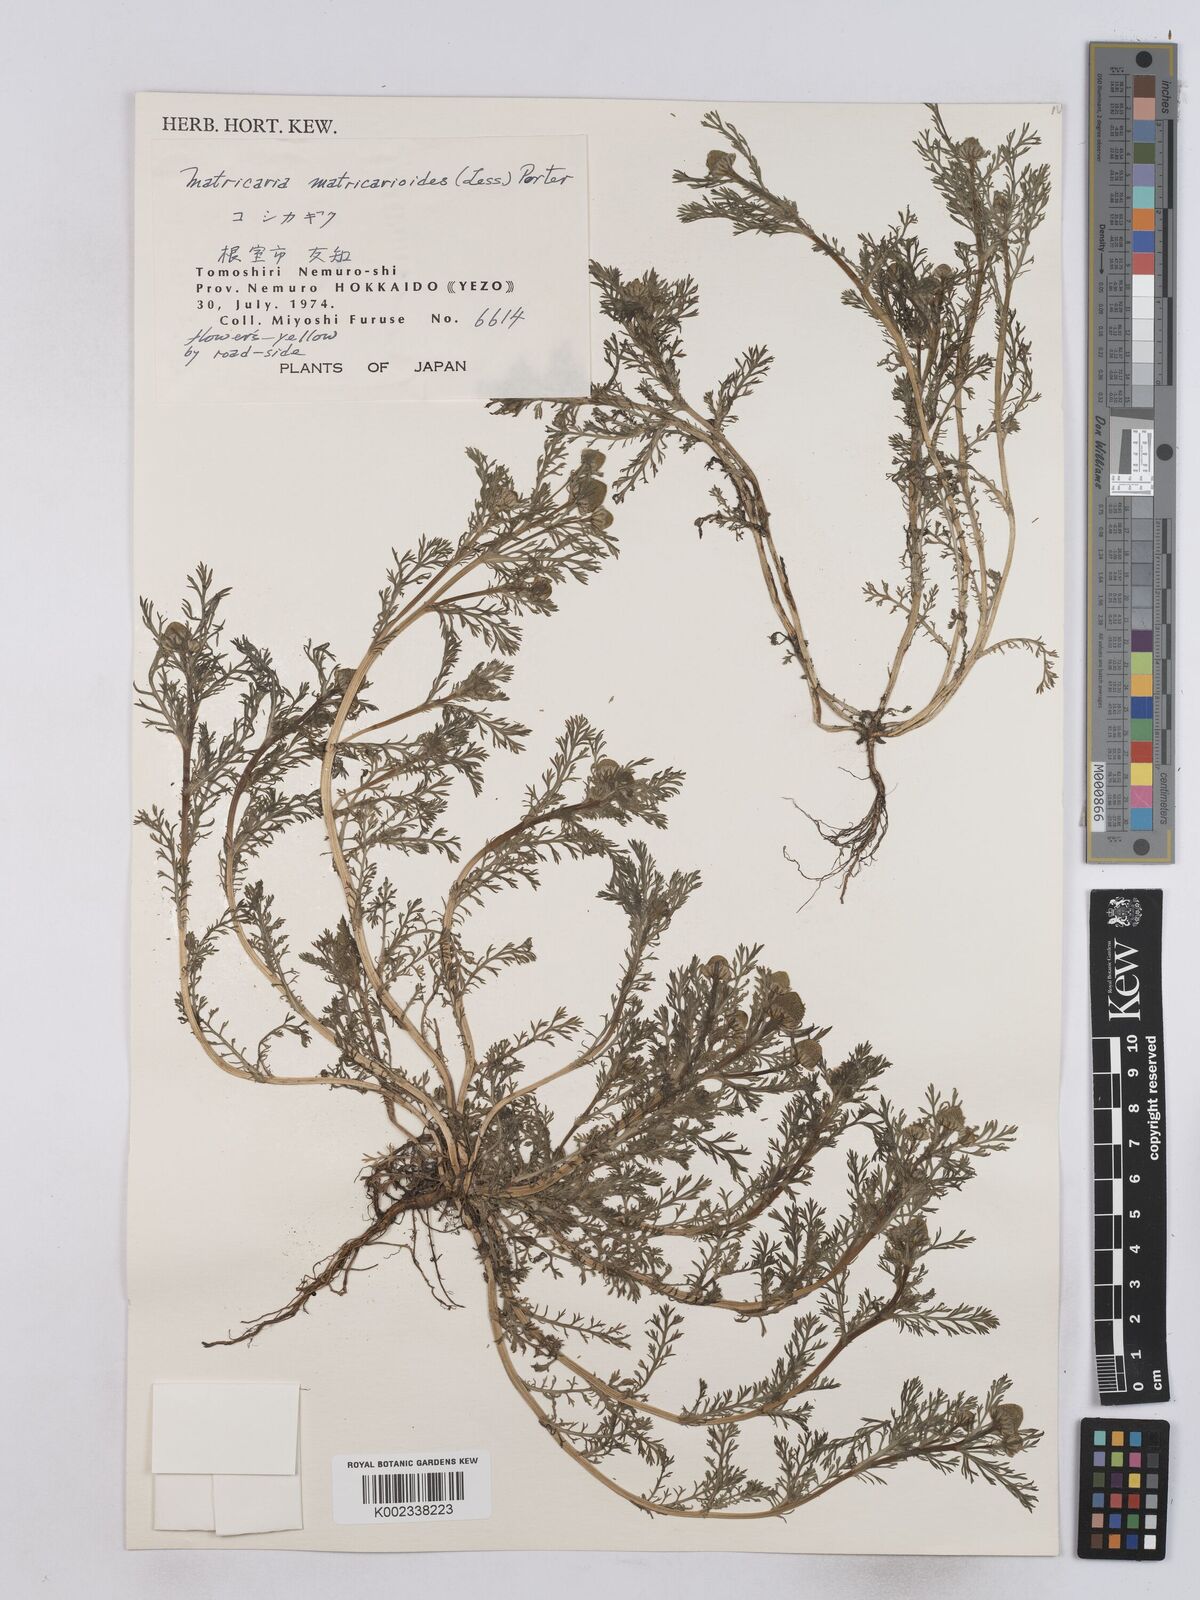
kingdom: Plantae
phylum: Tracheophyta
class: Magnoliopsida
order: Asterales
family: Asteraceae
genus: Matricaria
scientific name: Matricaria discoidea
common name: Disc mayweed
